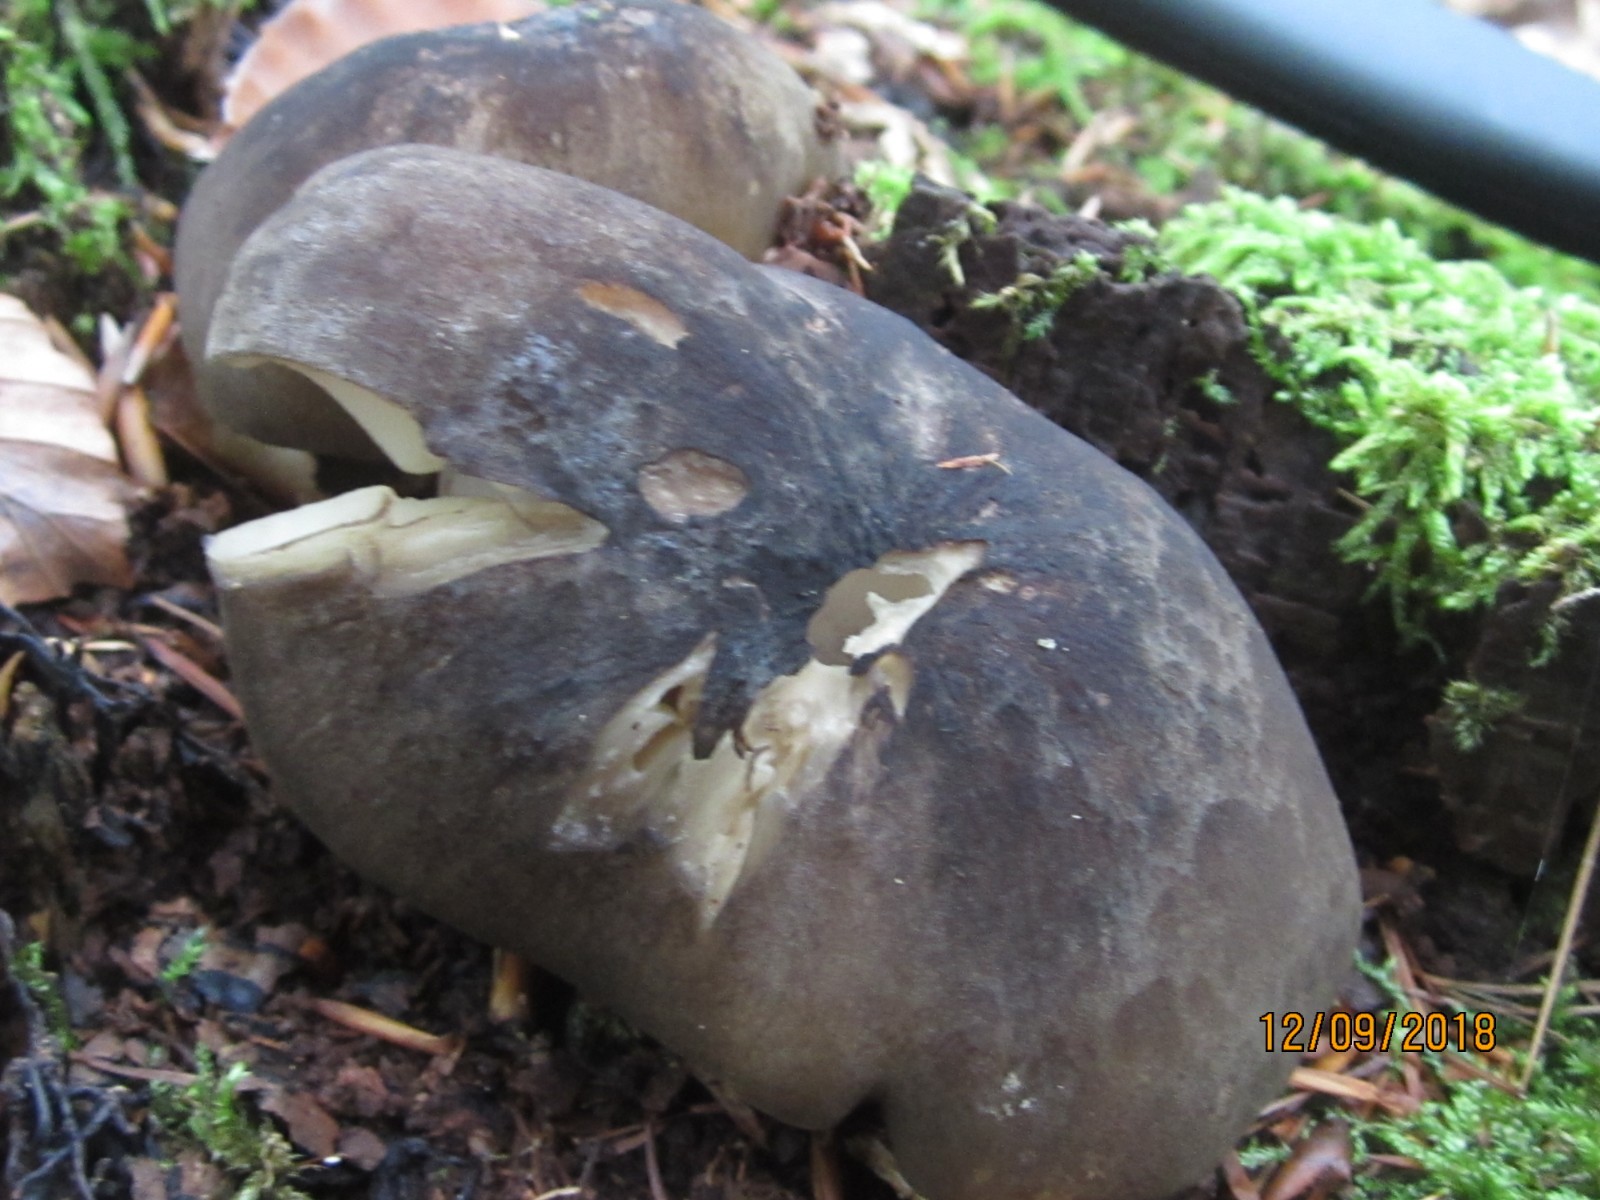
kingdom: Fungi
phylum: Basidiomycota
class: Agaricomycetes
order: Agaricales
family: Tricholomataceae
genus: Megacollybia
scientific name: Megacollybia platyphylla
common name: bredbladet væbnerhat
